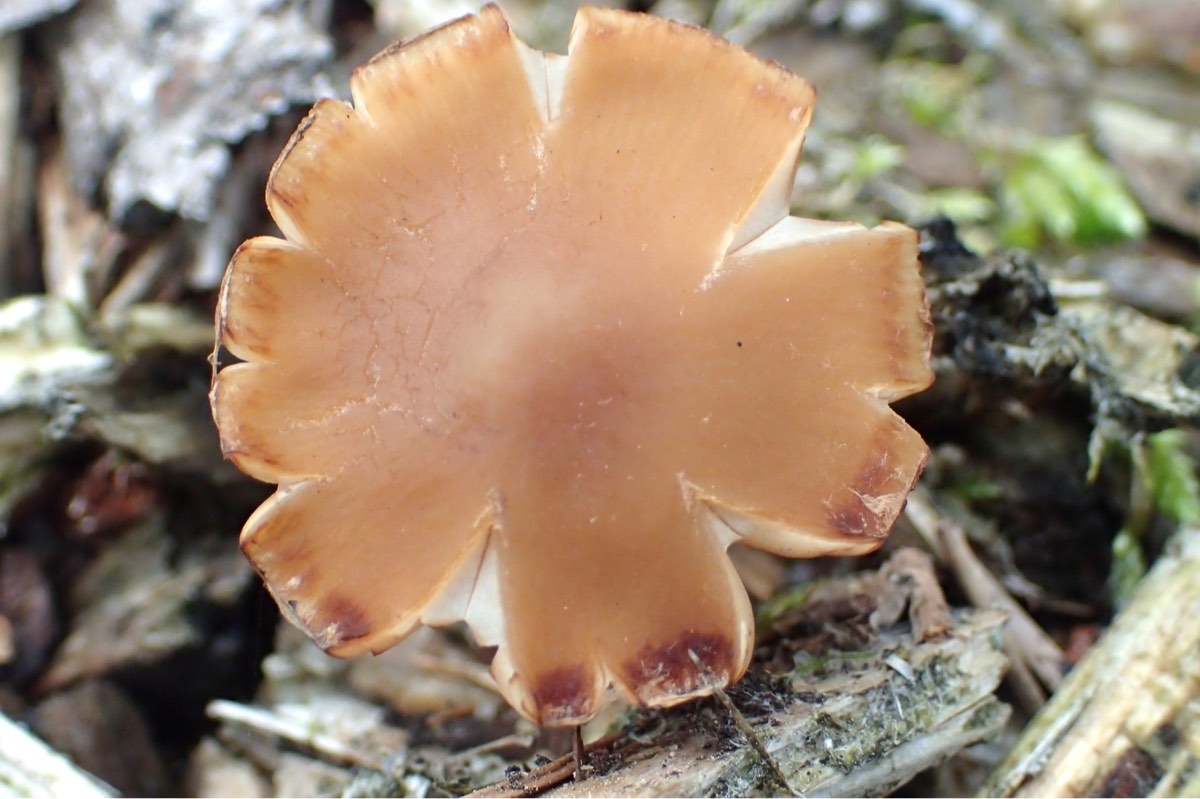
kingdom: Fungi
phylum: Basidiomycota
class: Agaricomycetes
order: Agaricales
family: Psathyrellaceae
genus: Psathyrella
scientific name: Psathyrella piluliformis
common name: lysstokket mørkhat
